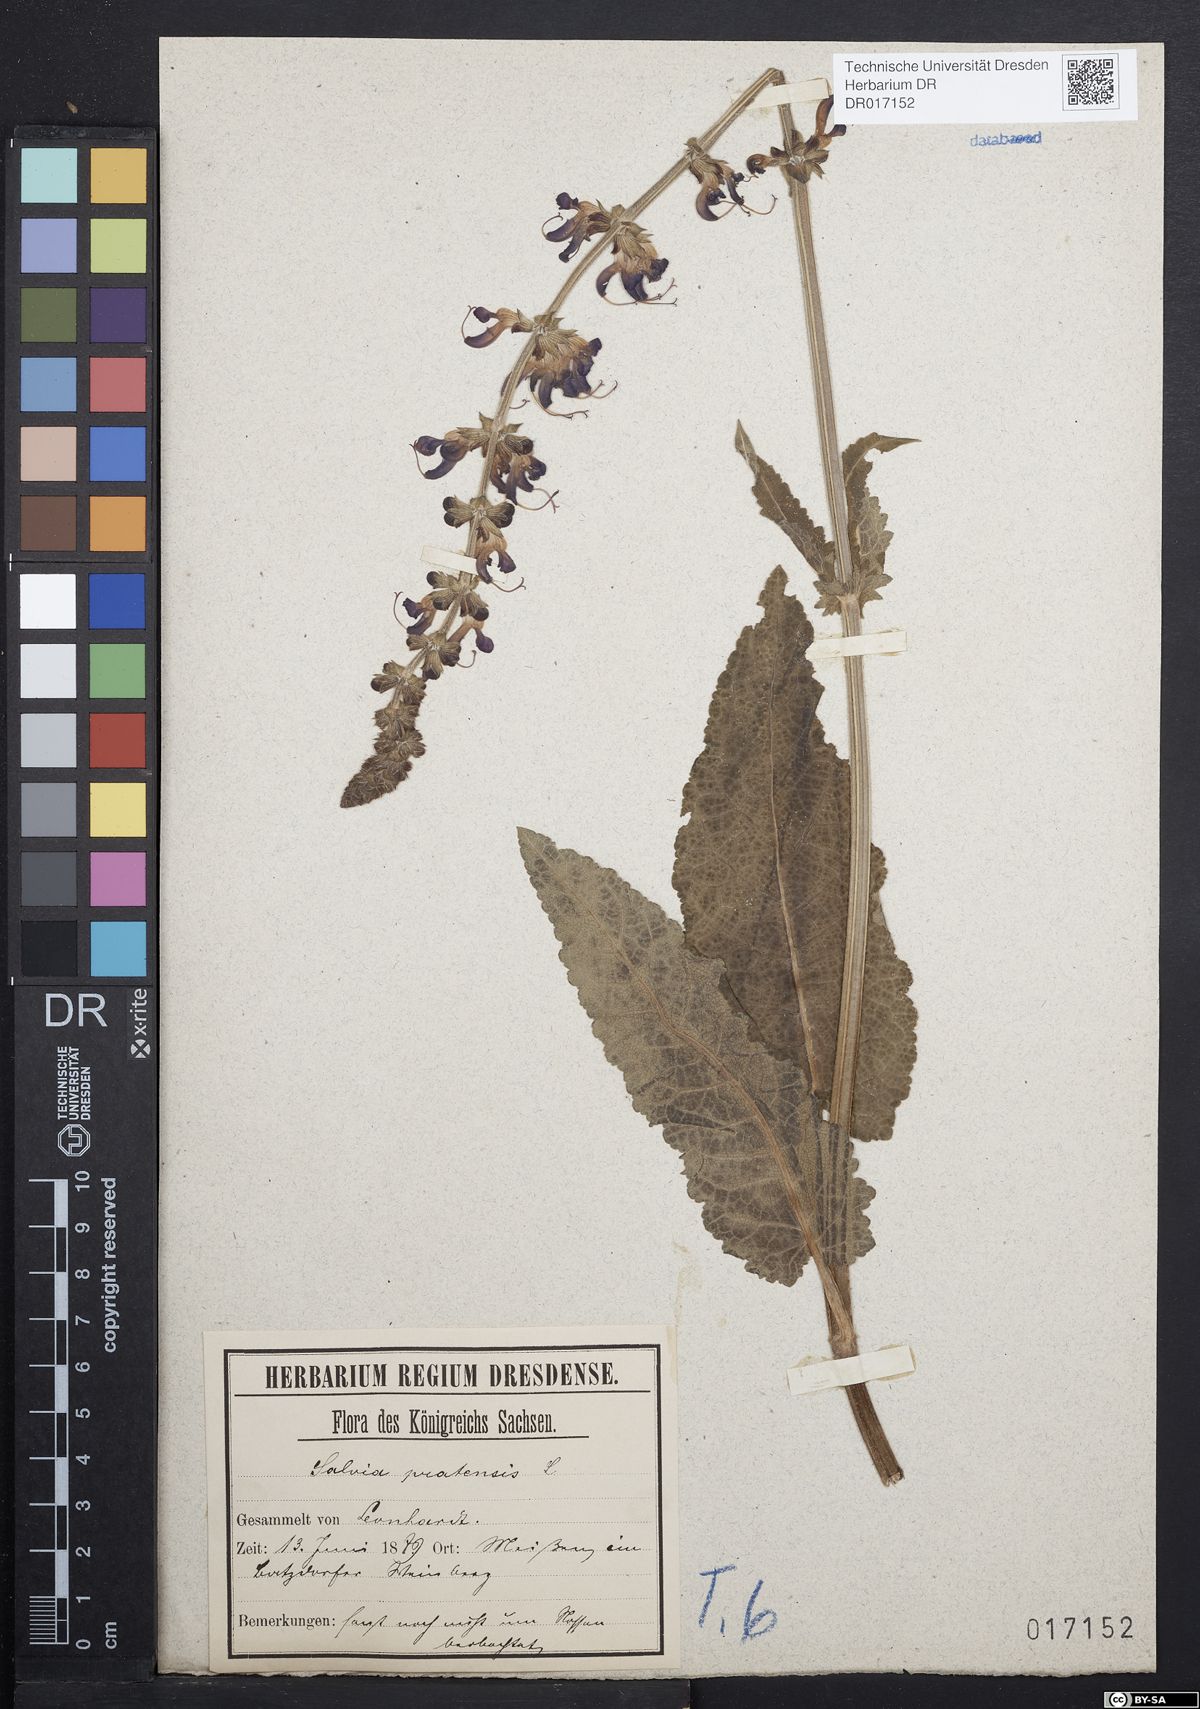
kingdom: Plantae
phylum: Tracheophyta
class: Magnoliopsida
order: Lamiales
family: Lamiaceae
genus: Salvia
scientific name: Salvia pratensis
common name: Meadow sage
